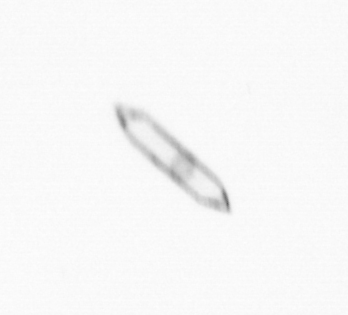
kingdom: Chromista
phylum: Ochrophyta
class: Bacillariophyceae
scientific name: Bacillariophyceae
